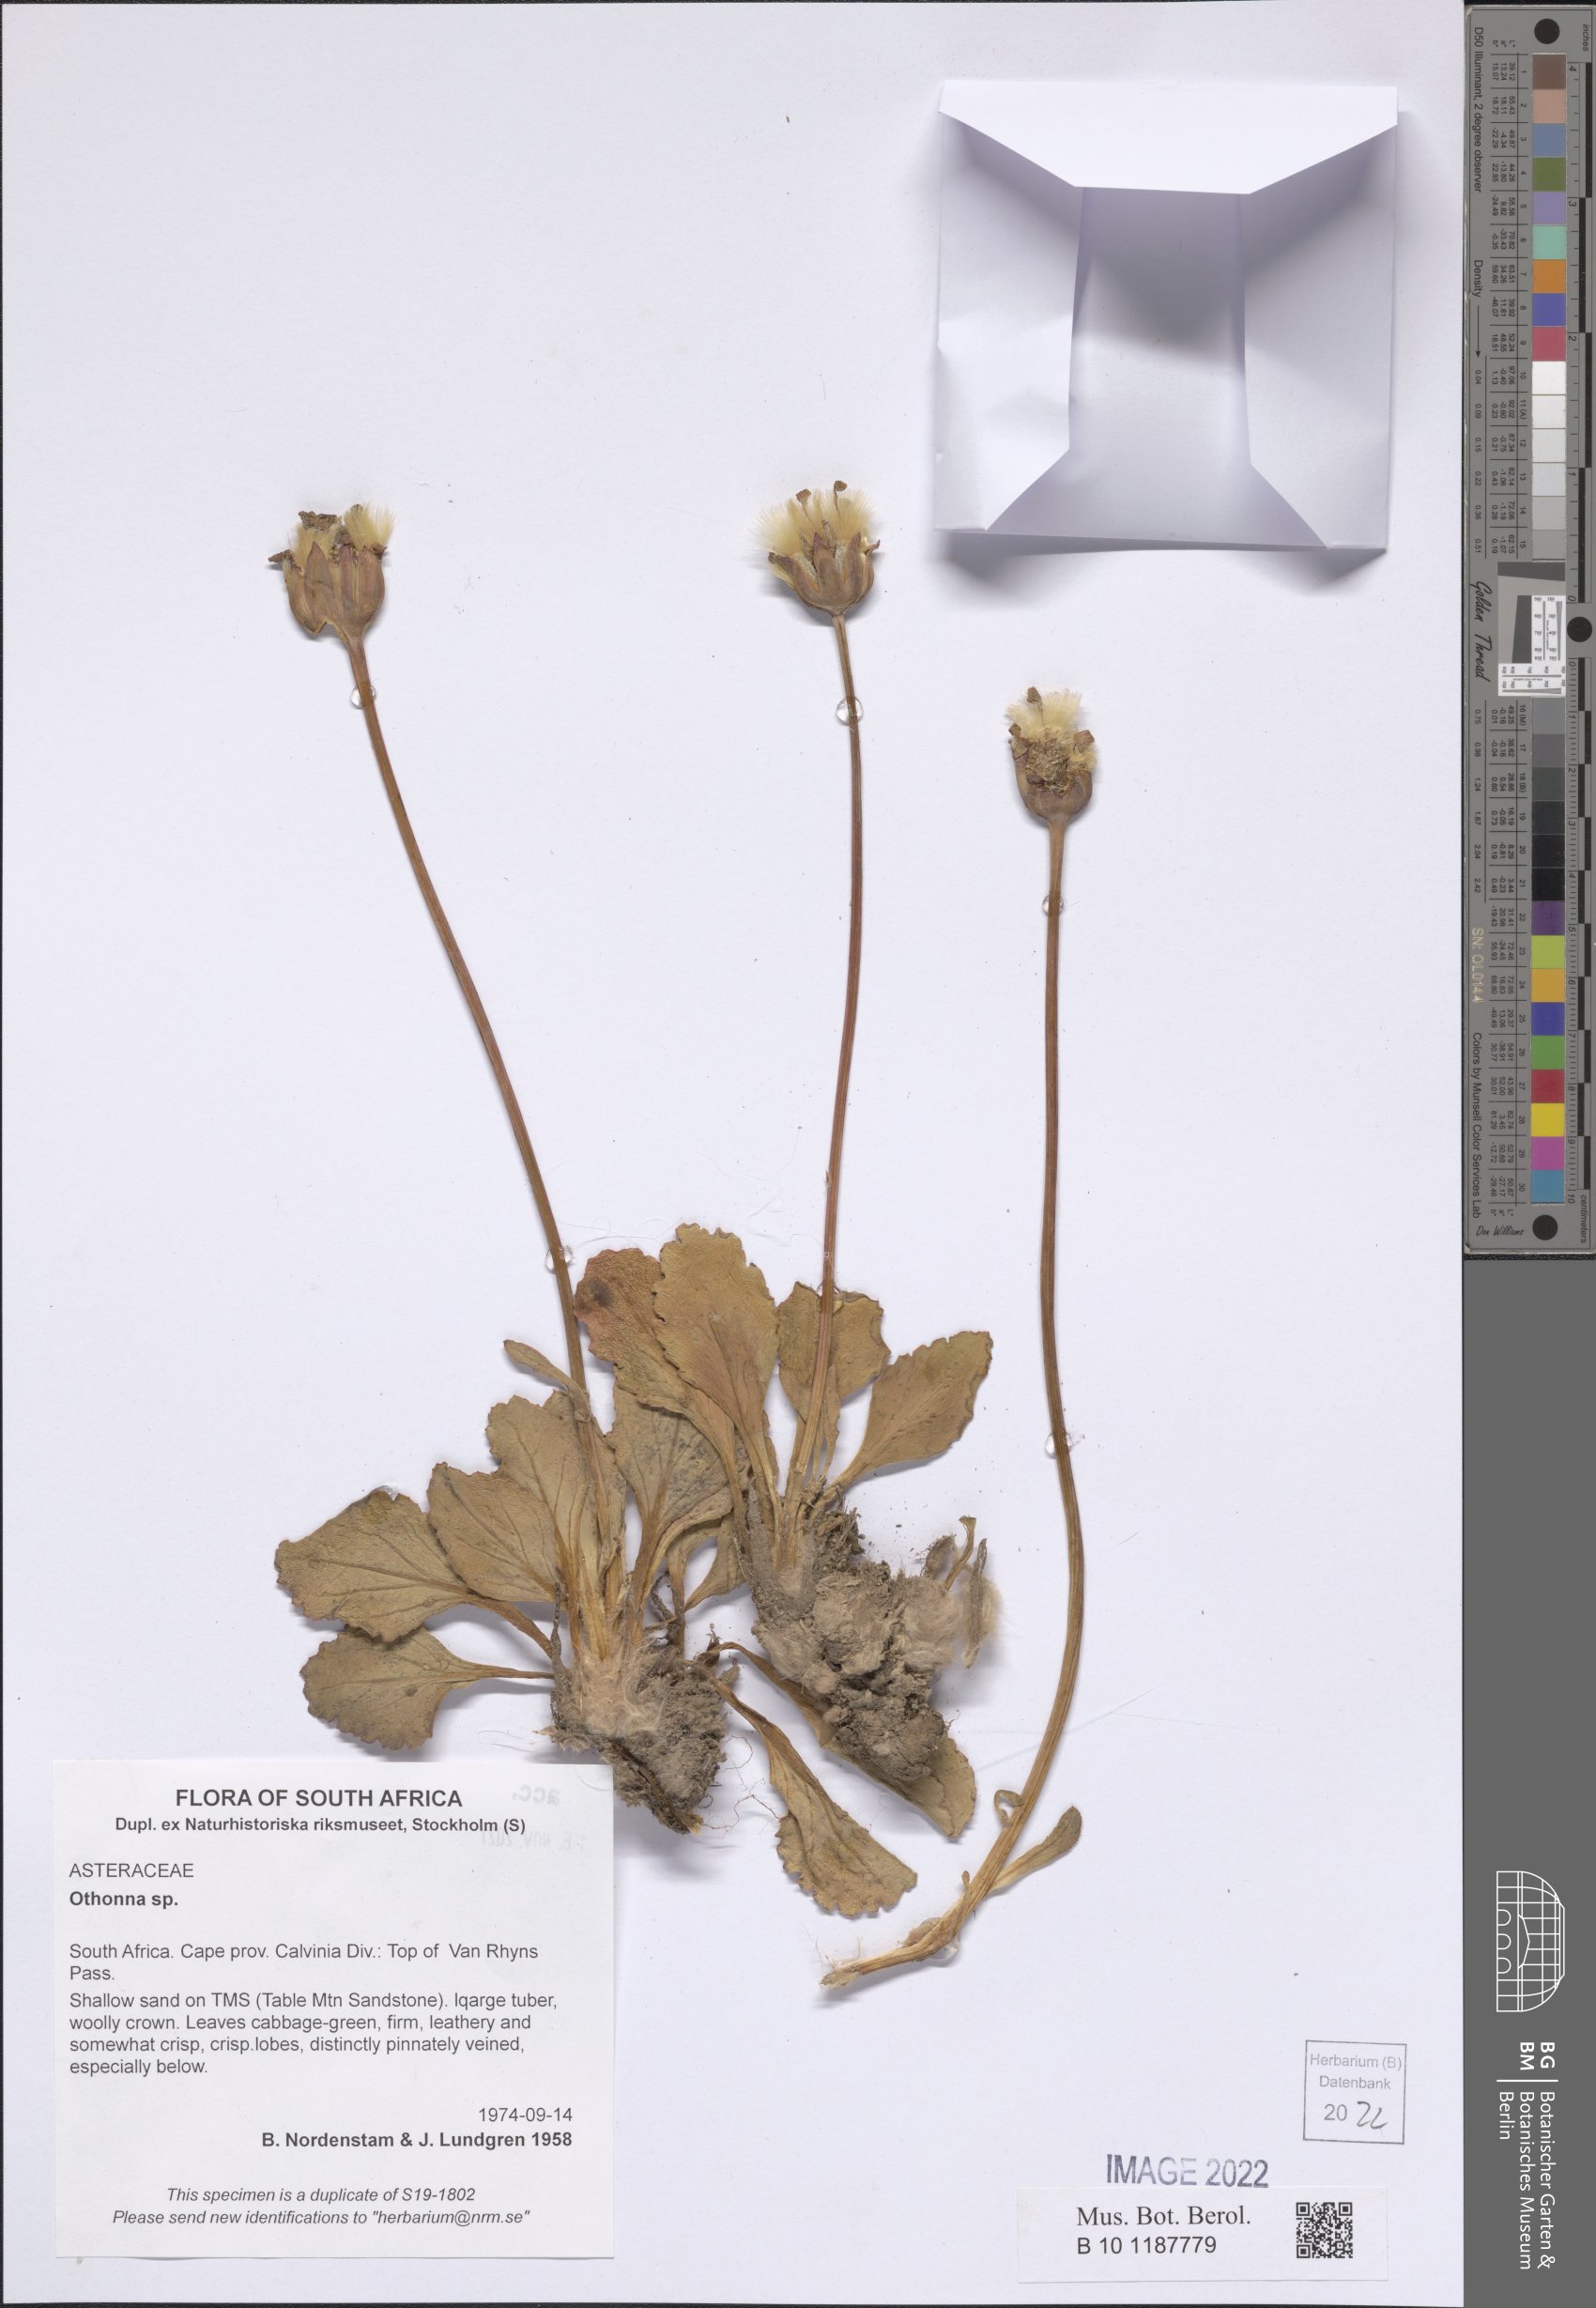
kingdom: Plantae
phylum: Tracheophyta
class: Magnoliopsida
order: Asterales
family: Asteraceae
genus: Othonna
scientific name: Othonna
